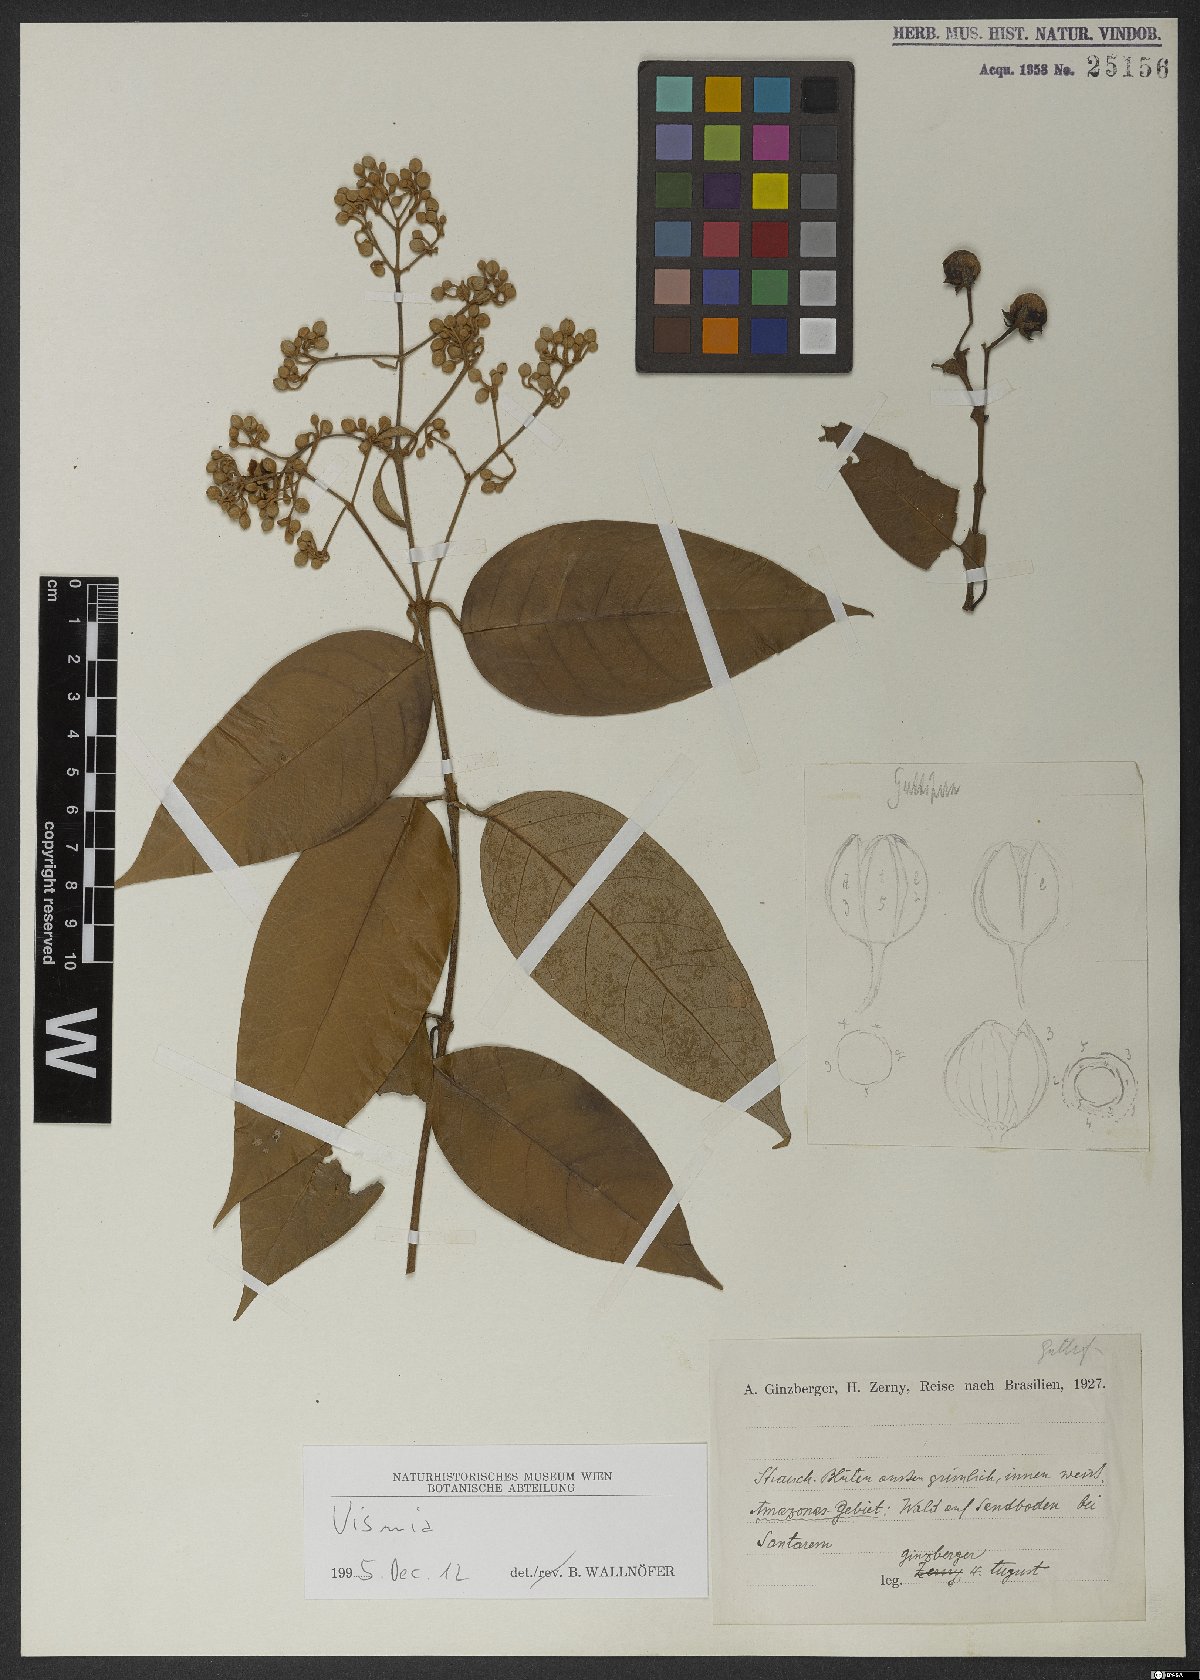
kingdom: Plantae
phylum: Tracheophyta
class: Magnoliopsida
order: Malpighiales
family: Hypericaceae
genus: Vismia
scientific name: Vismia gracilis
